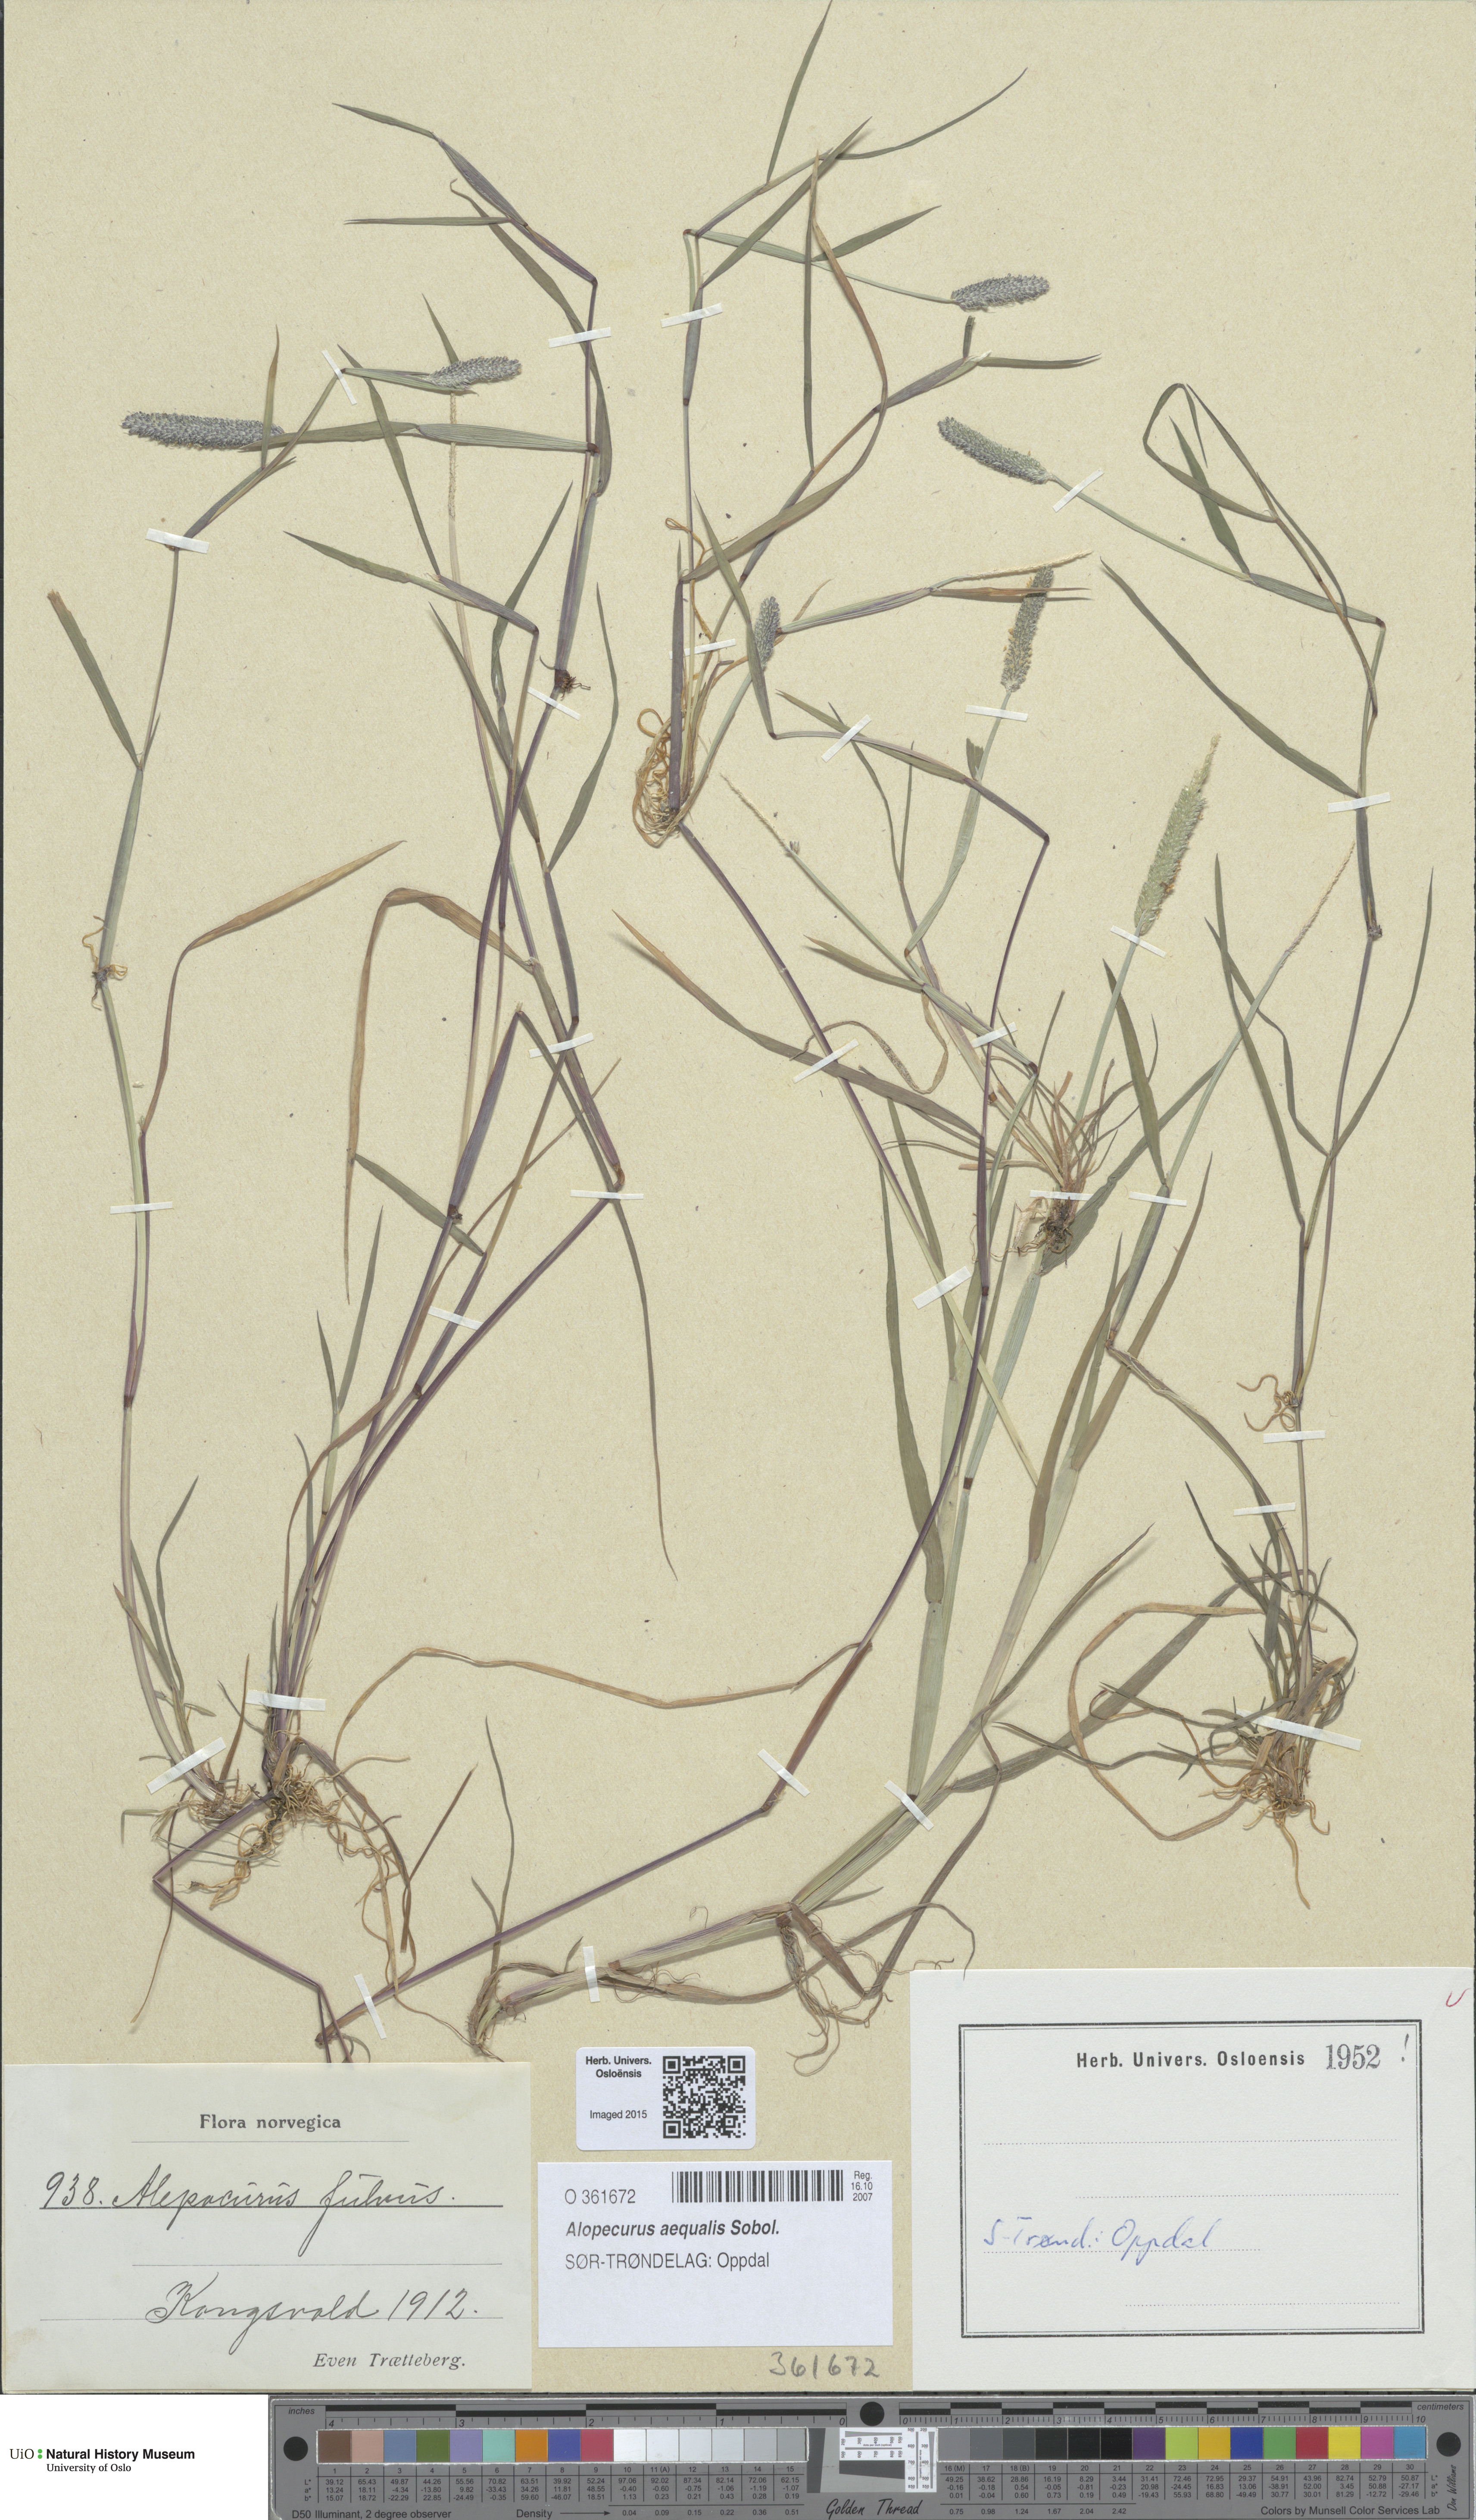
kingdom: Plantae
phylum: Tracheophyta
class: Liliopsida
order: Poales
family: Poaceae
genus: Alopecurus
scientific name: Alopecurus aequalis
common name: Orange foxtail
